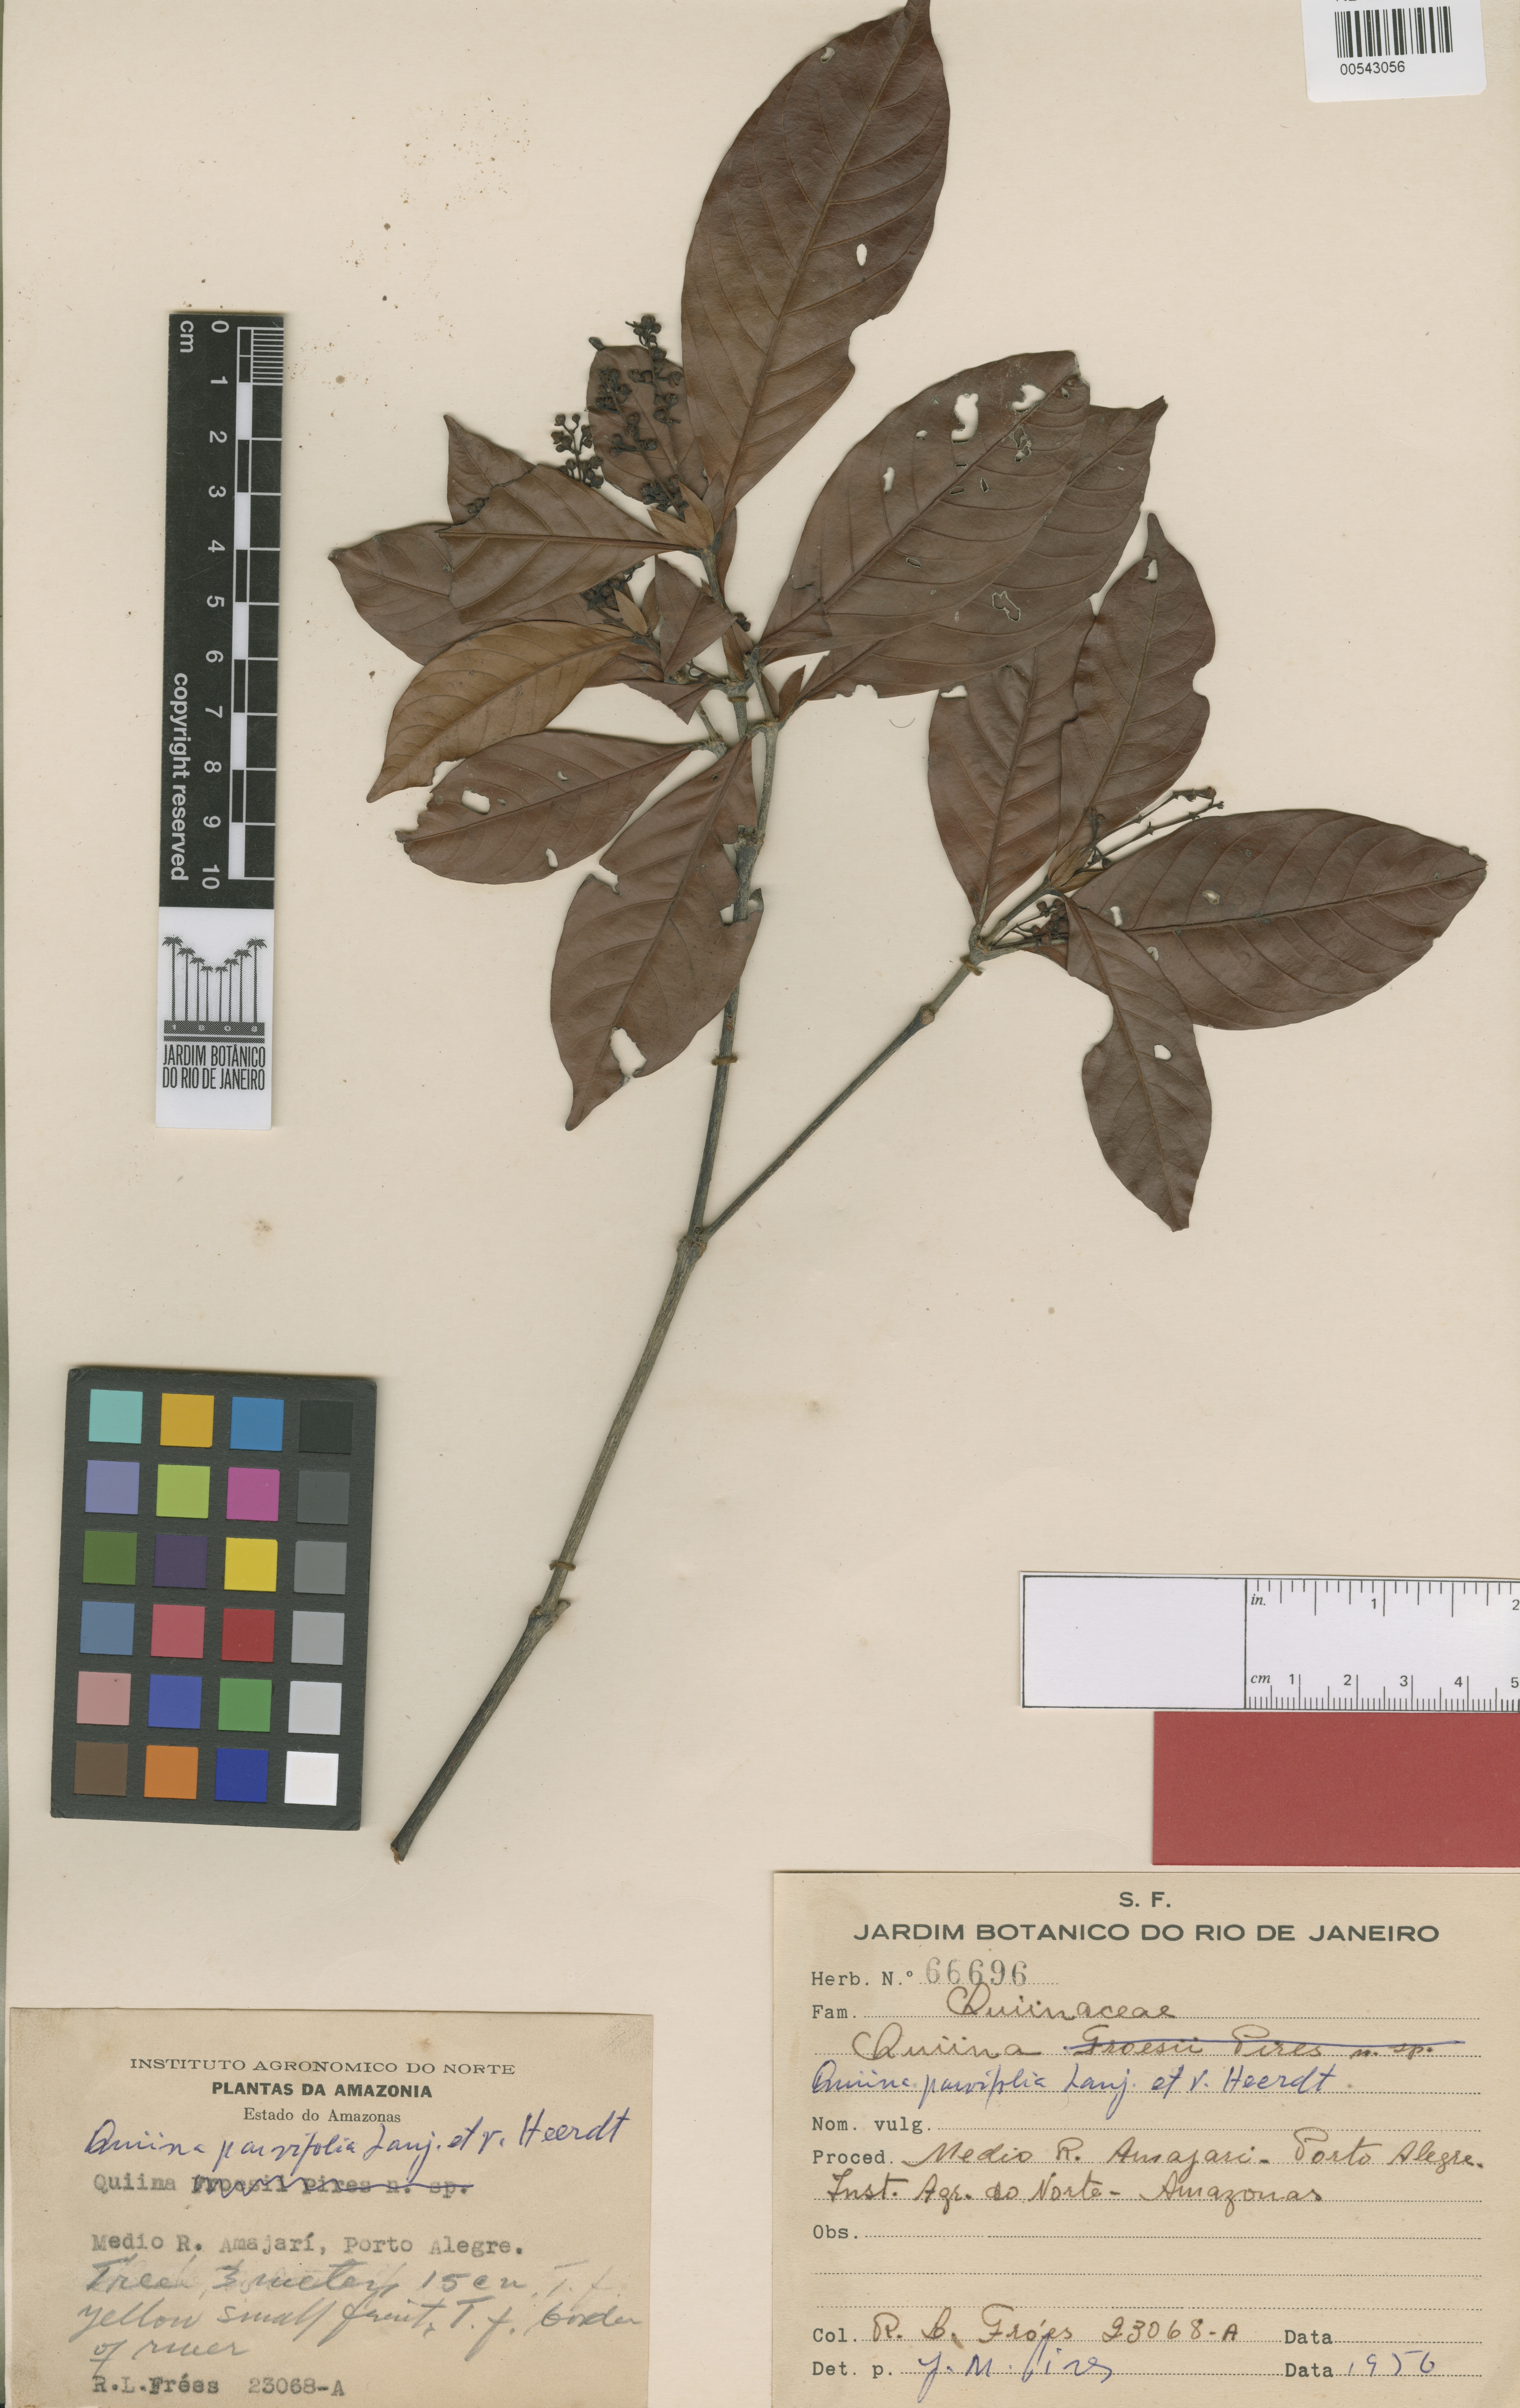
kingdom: Plantae
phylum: Tracheophyta
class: Magnoliopsida
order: Malpighiales
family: Quiinaceae
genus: Quiina
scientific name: Quiina parvifolia
